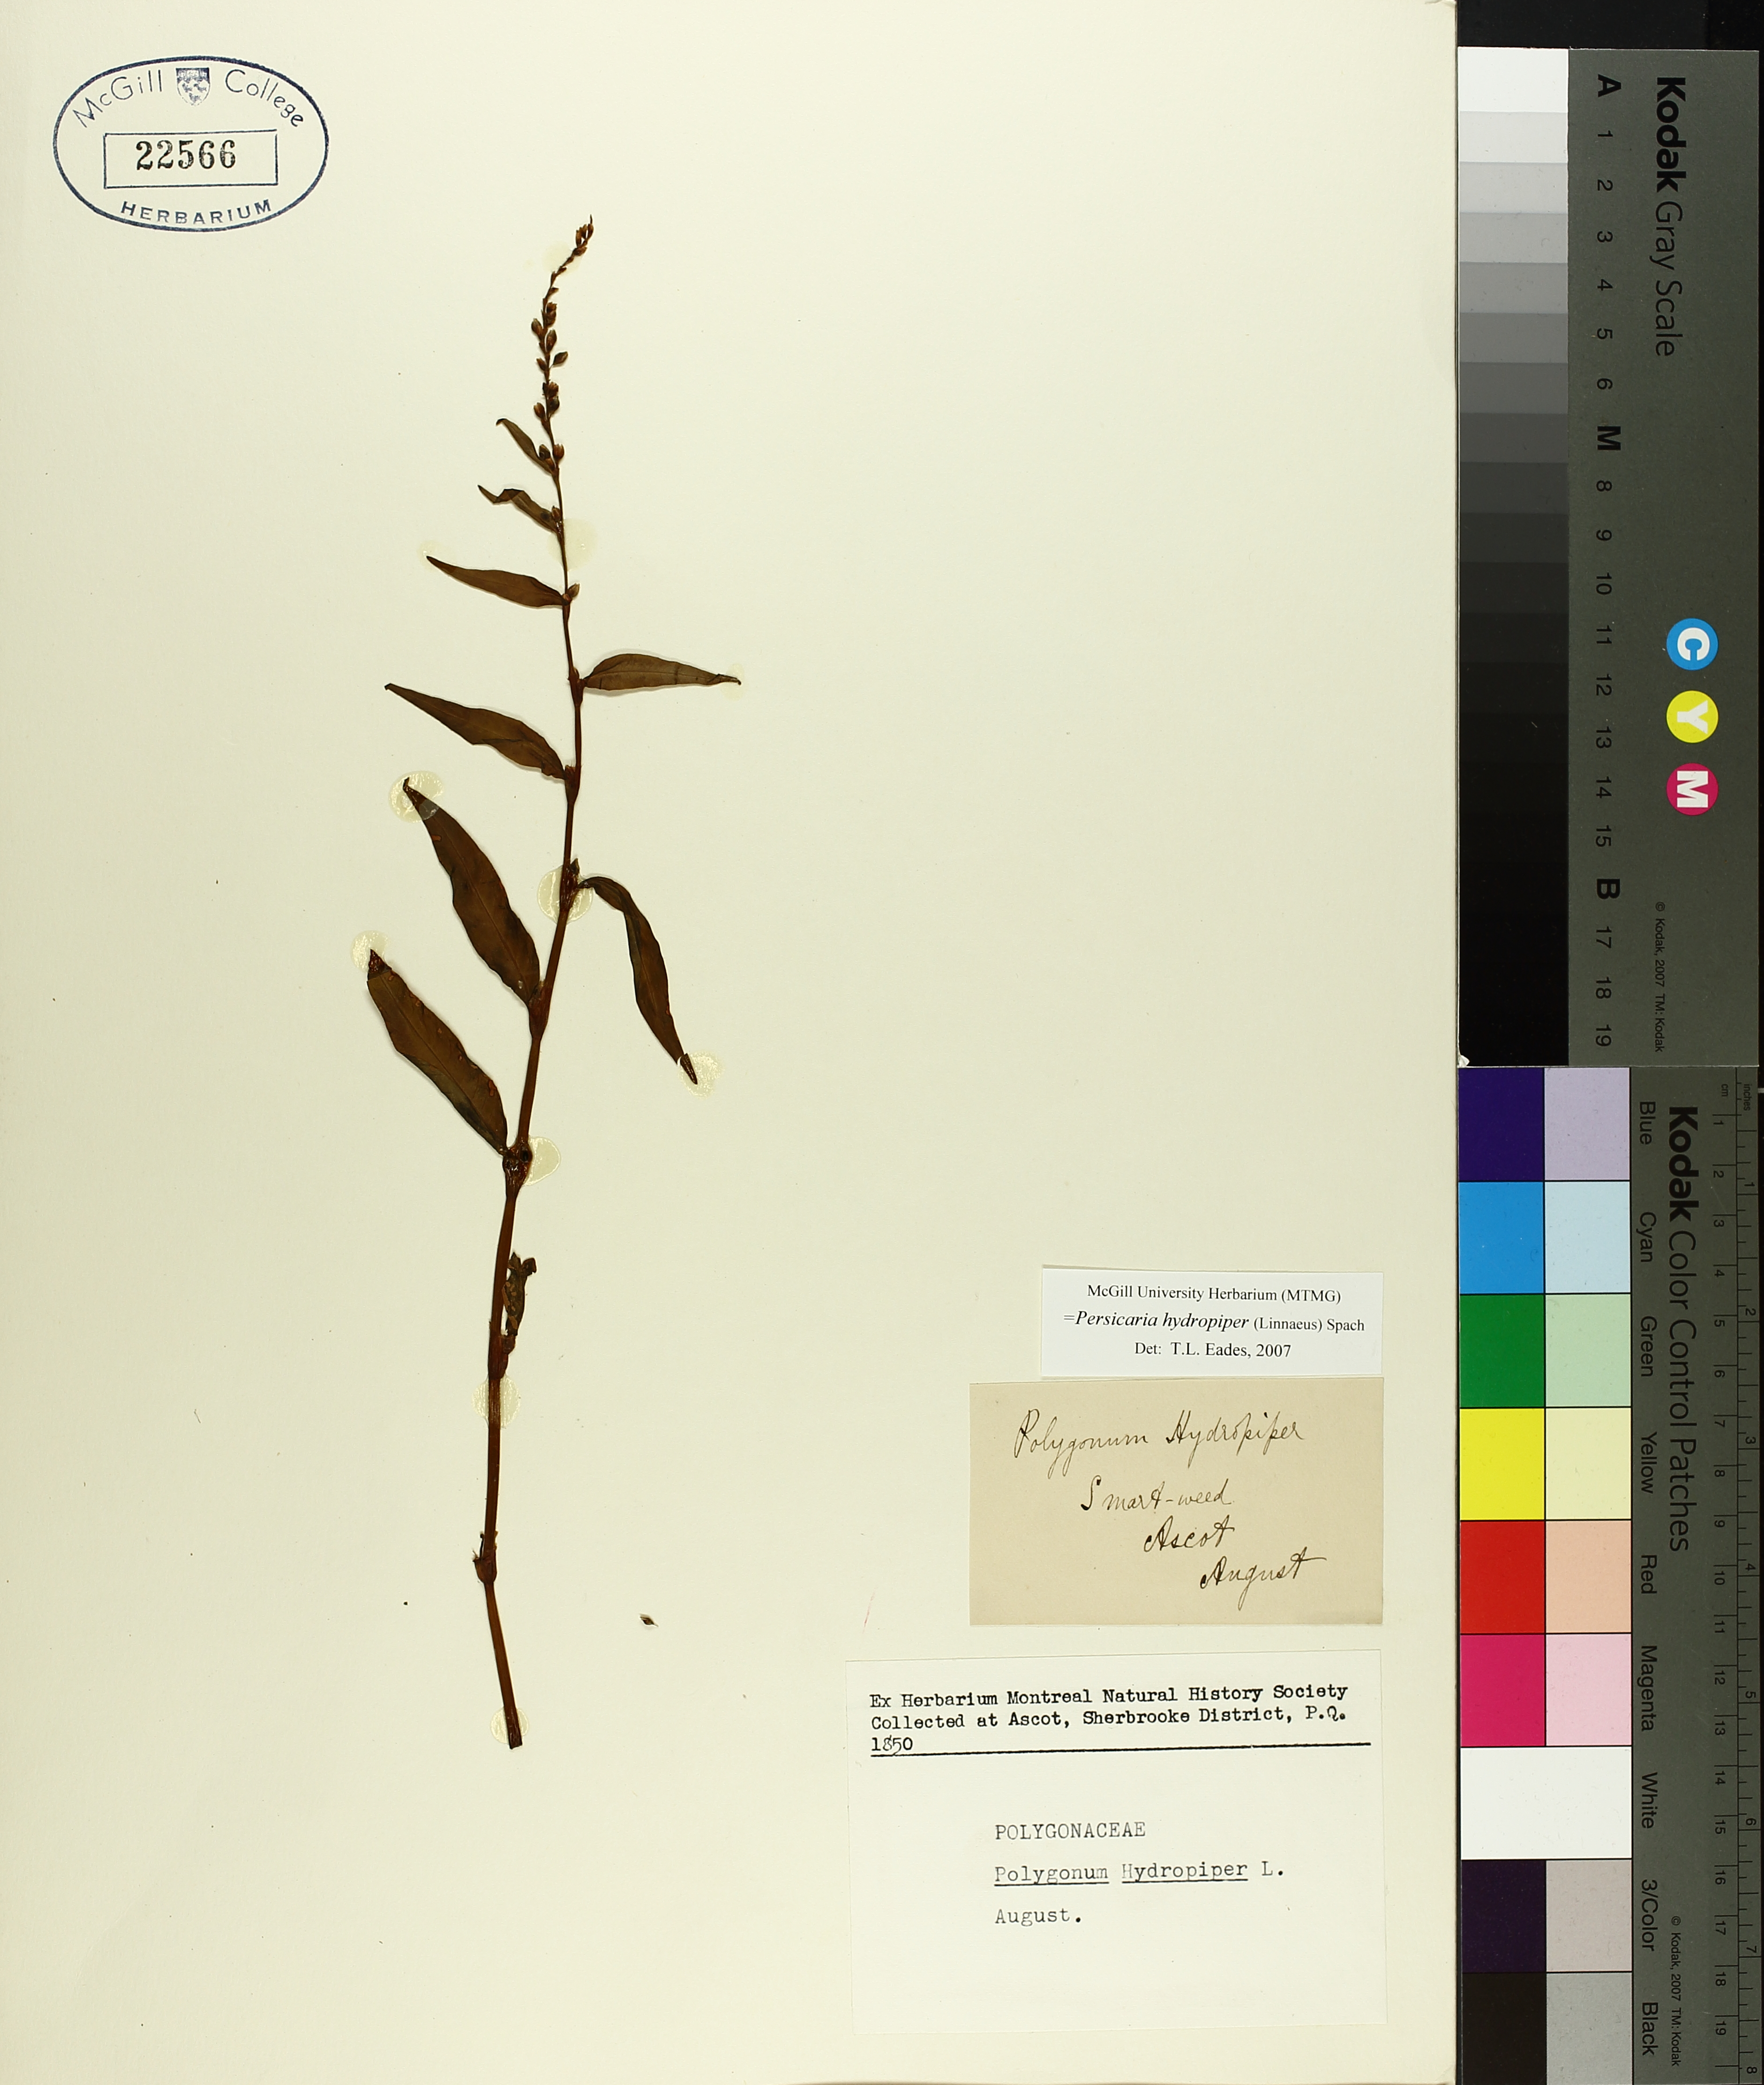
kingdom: Plantae
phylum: Tracheophyta
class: Magnoliopsida
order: Caryophyllales
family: Polygonaceae
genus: Persicaria
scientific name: Persicaria hydropiper
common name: Water-pepper
